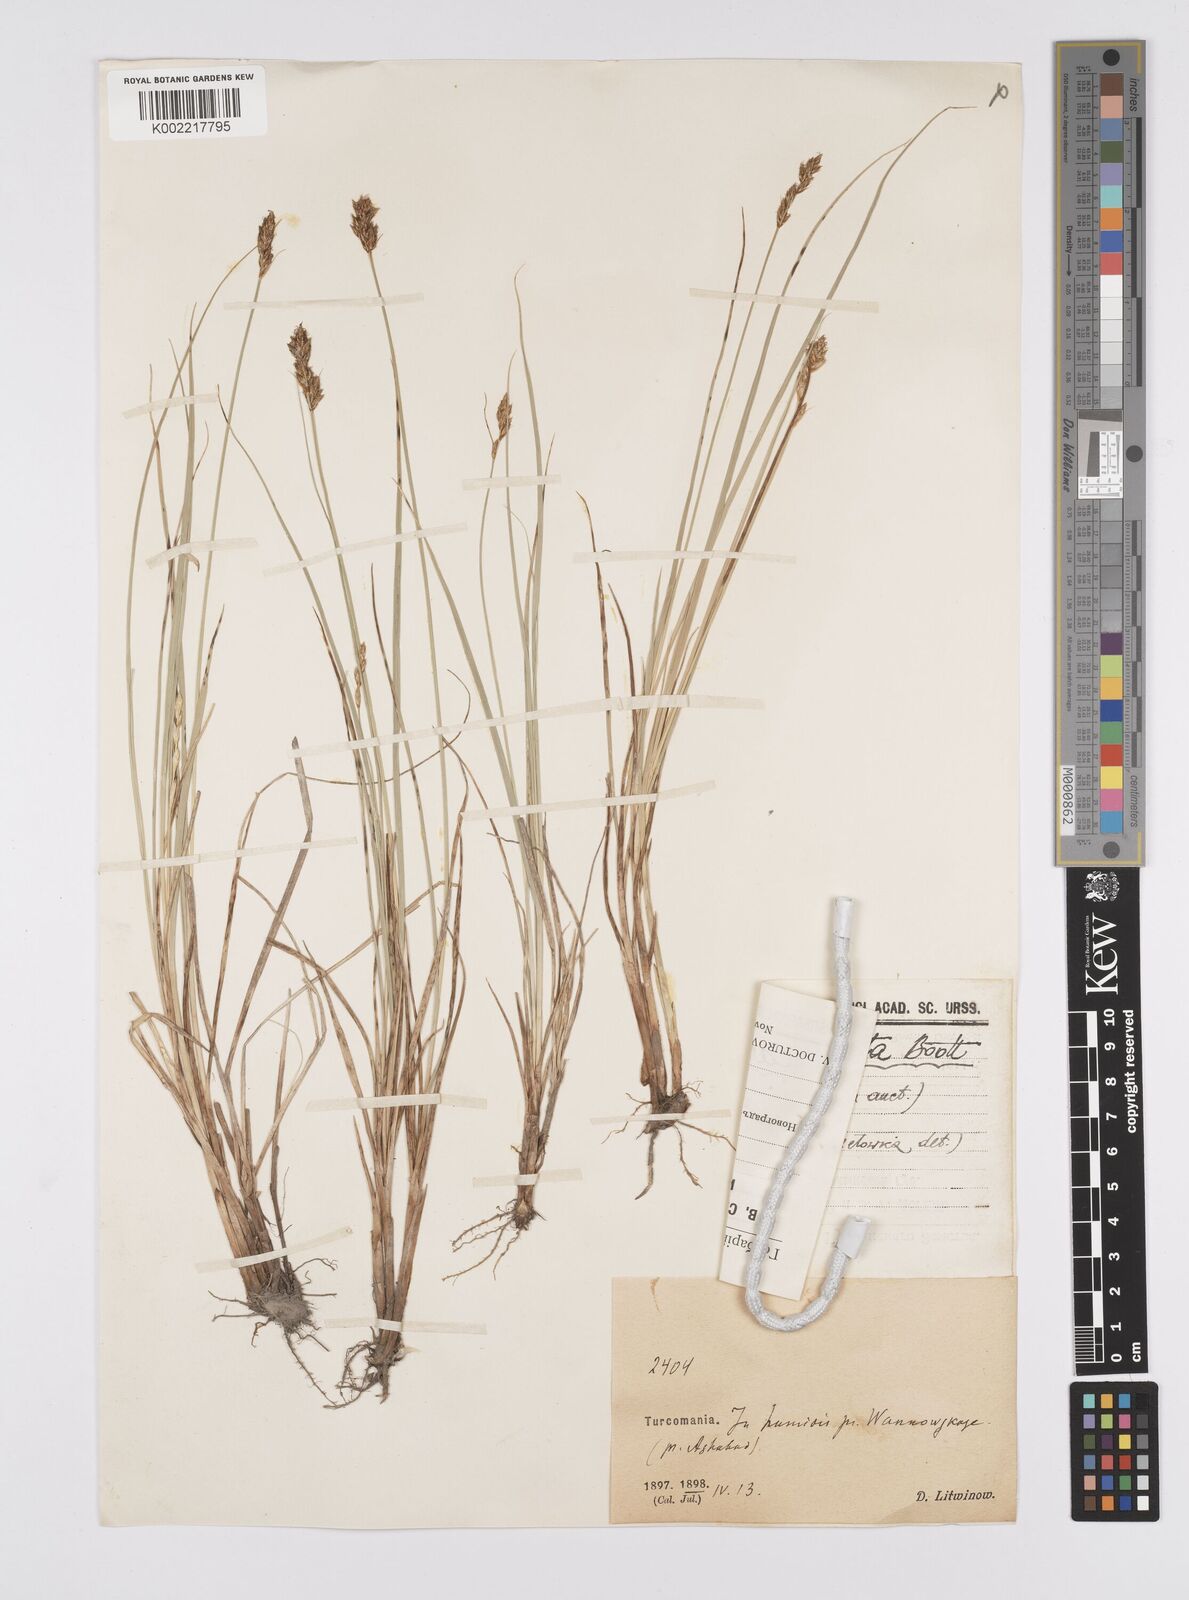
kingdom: Plantae
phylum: Tracheophyta
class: Liliopsida
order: Poales
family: Cyperaceae
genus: Carex
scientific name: Carex divisa
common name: Divided sedge
